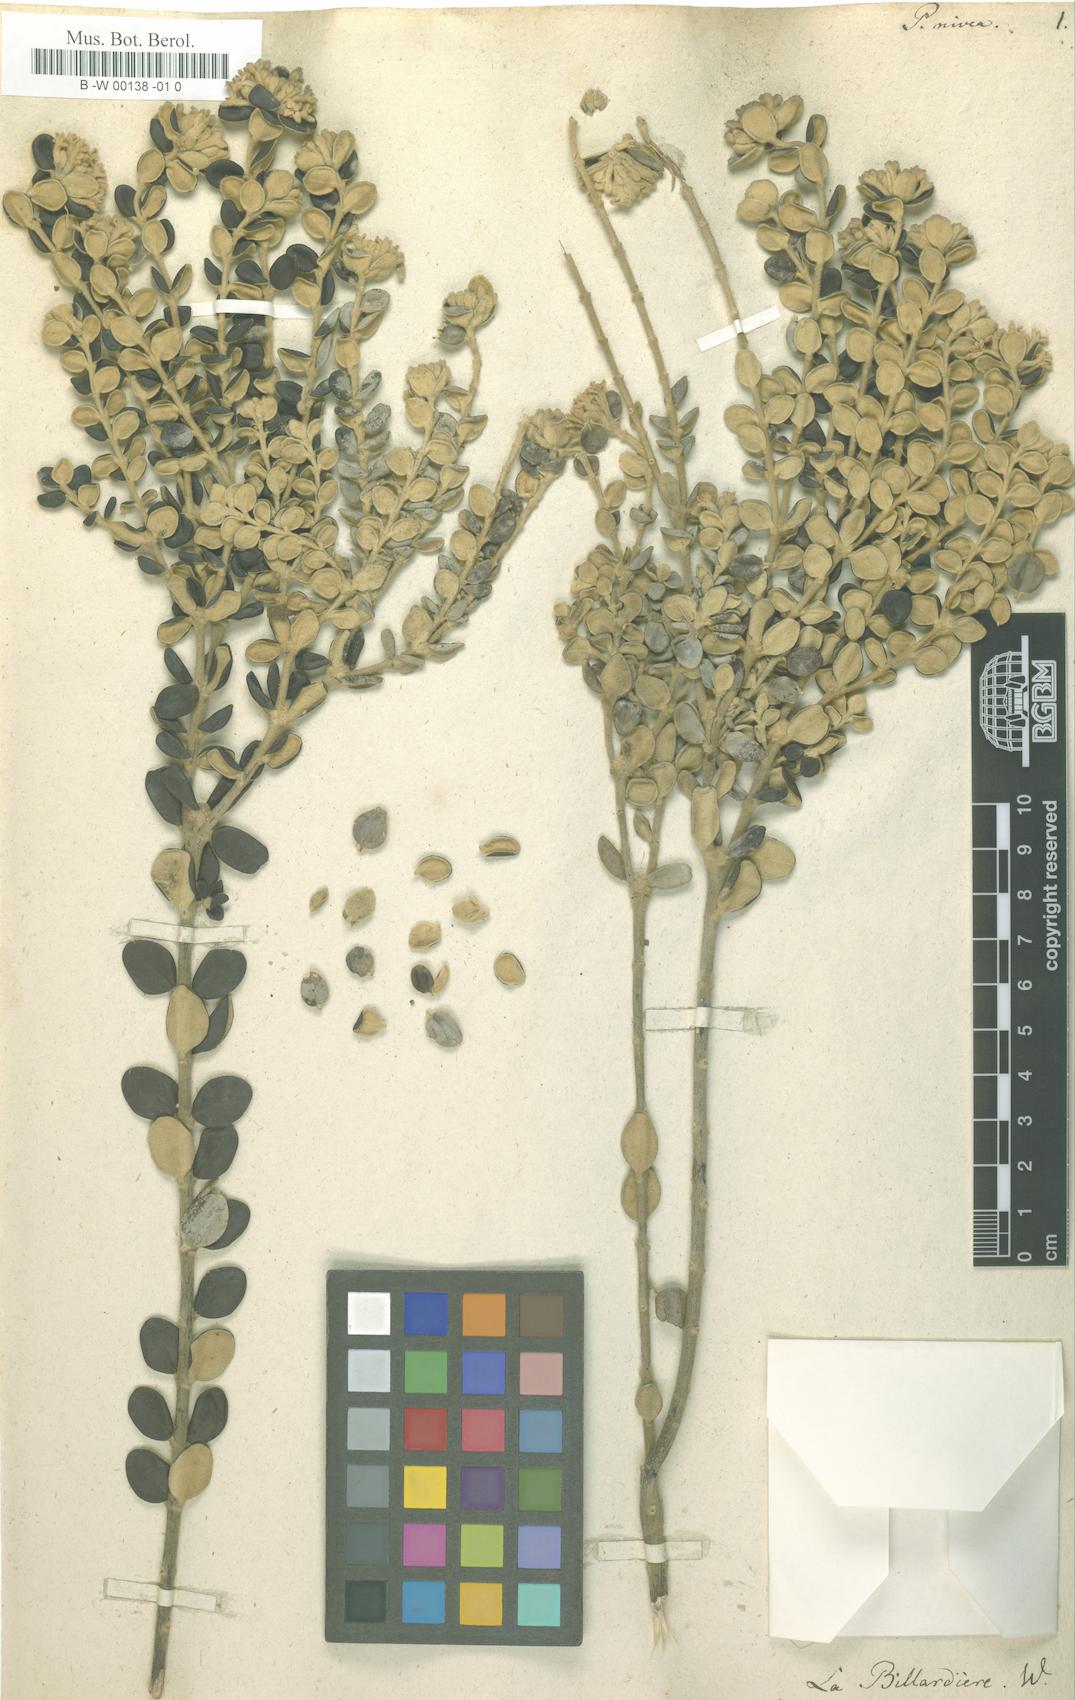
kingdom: Plantae
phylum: Tracheophyta
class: Magnoliopsida
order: Malvales
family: Thymelaeaceae
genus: Pimelea
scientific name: Pimelea nivea
